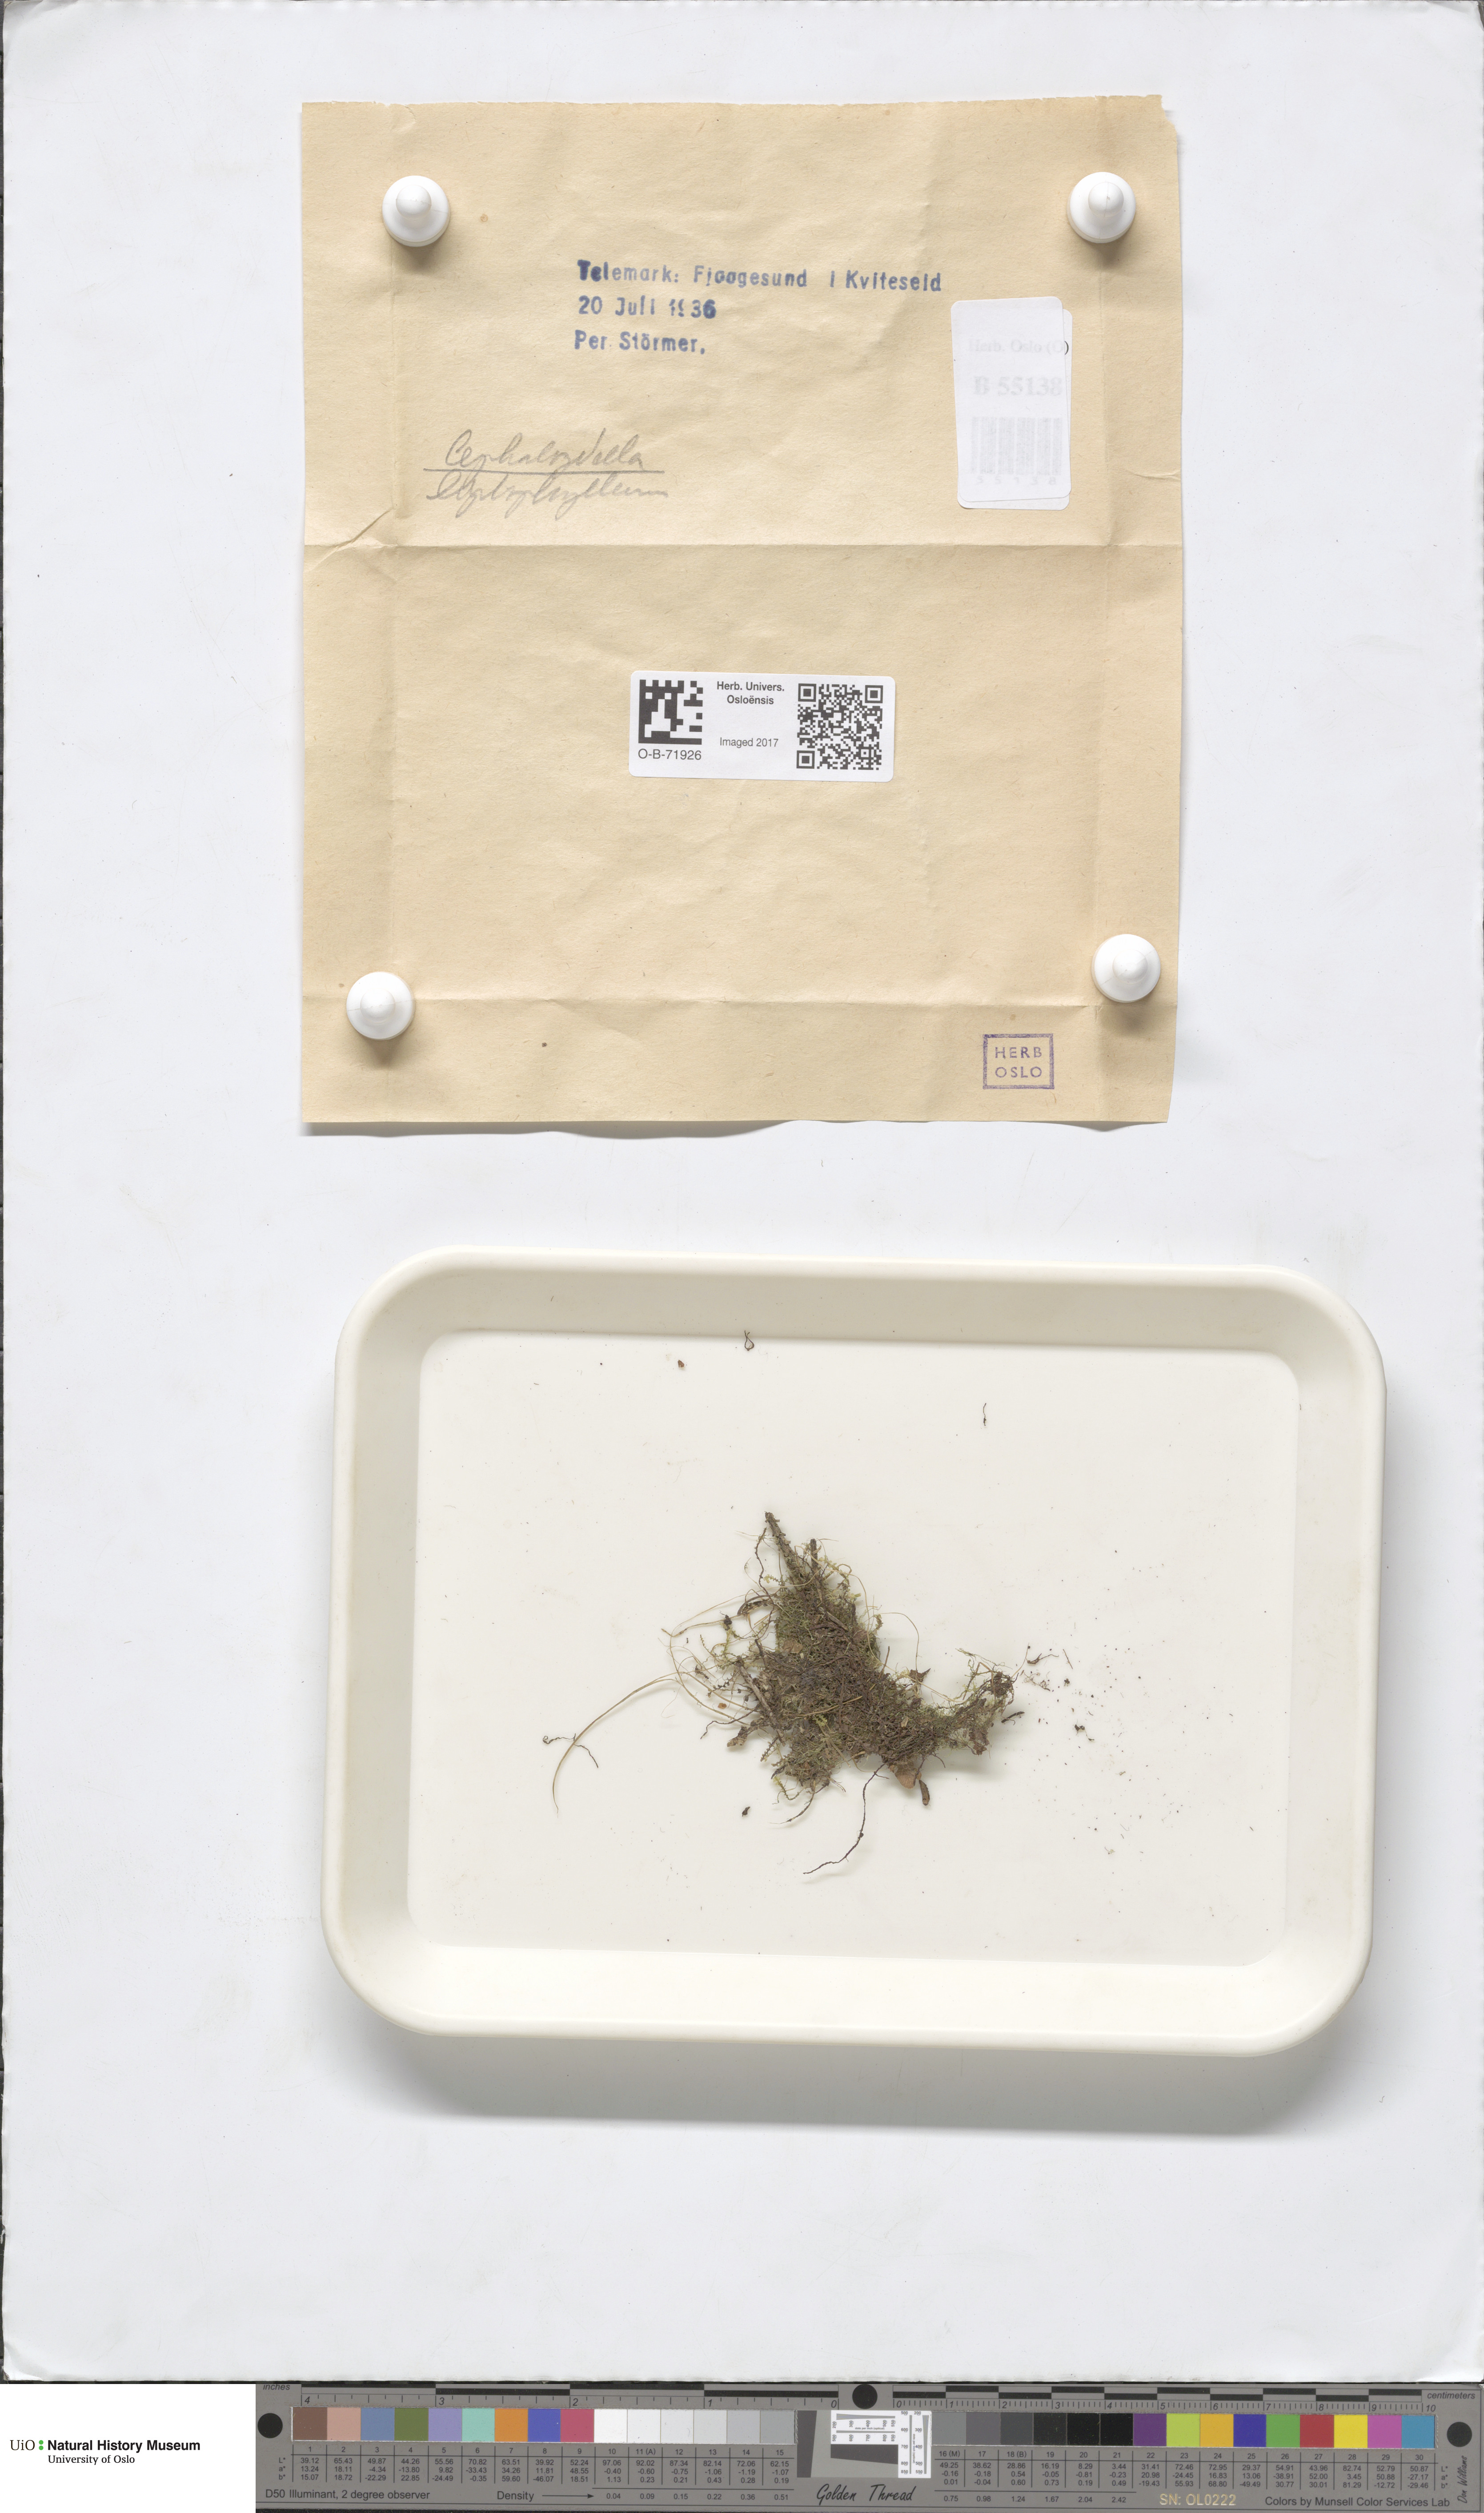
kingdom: Plantae
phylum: Marchantiophyta
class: Jungermanniopsida
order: Jungermanniales
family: Cephaloziellaceae
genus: Cephaloziella
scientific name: Cephaloziella
